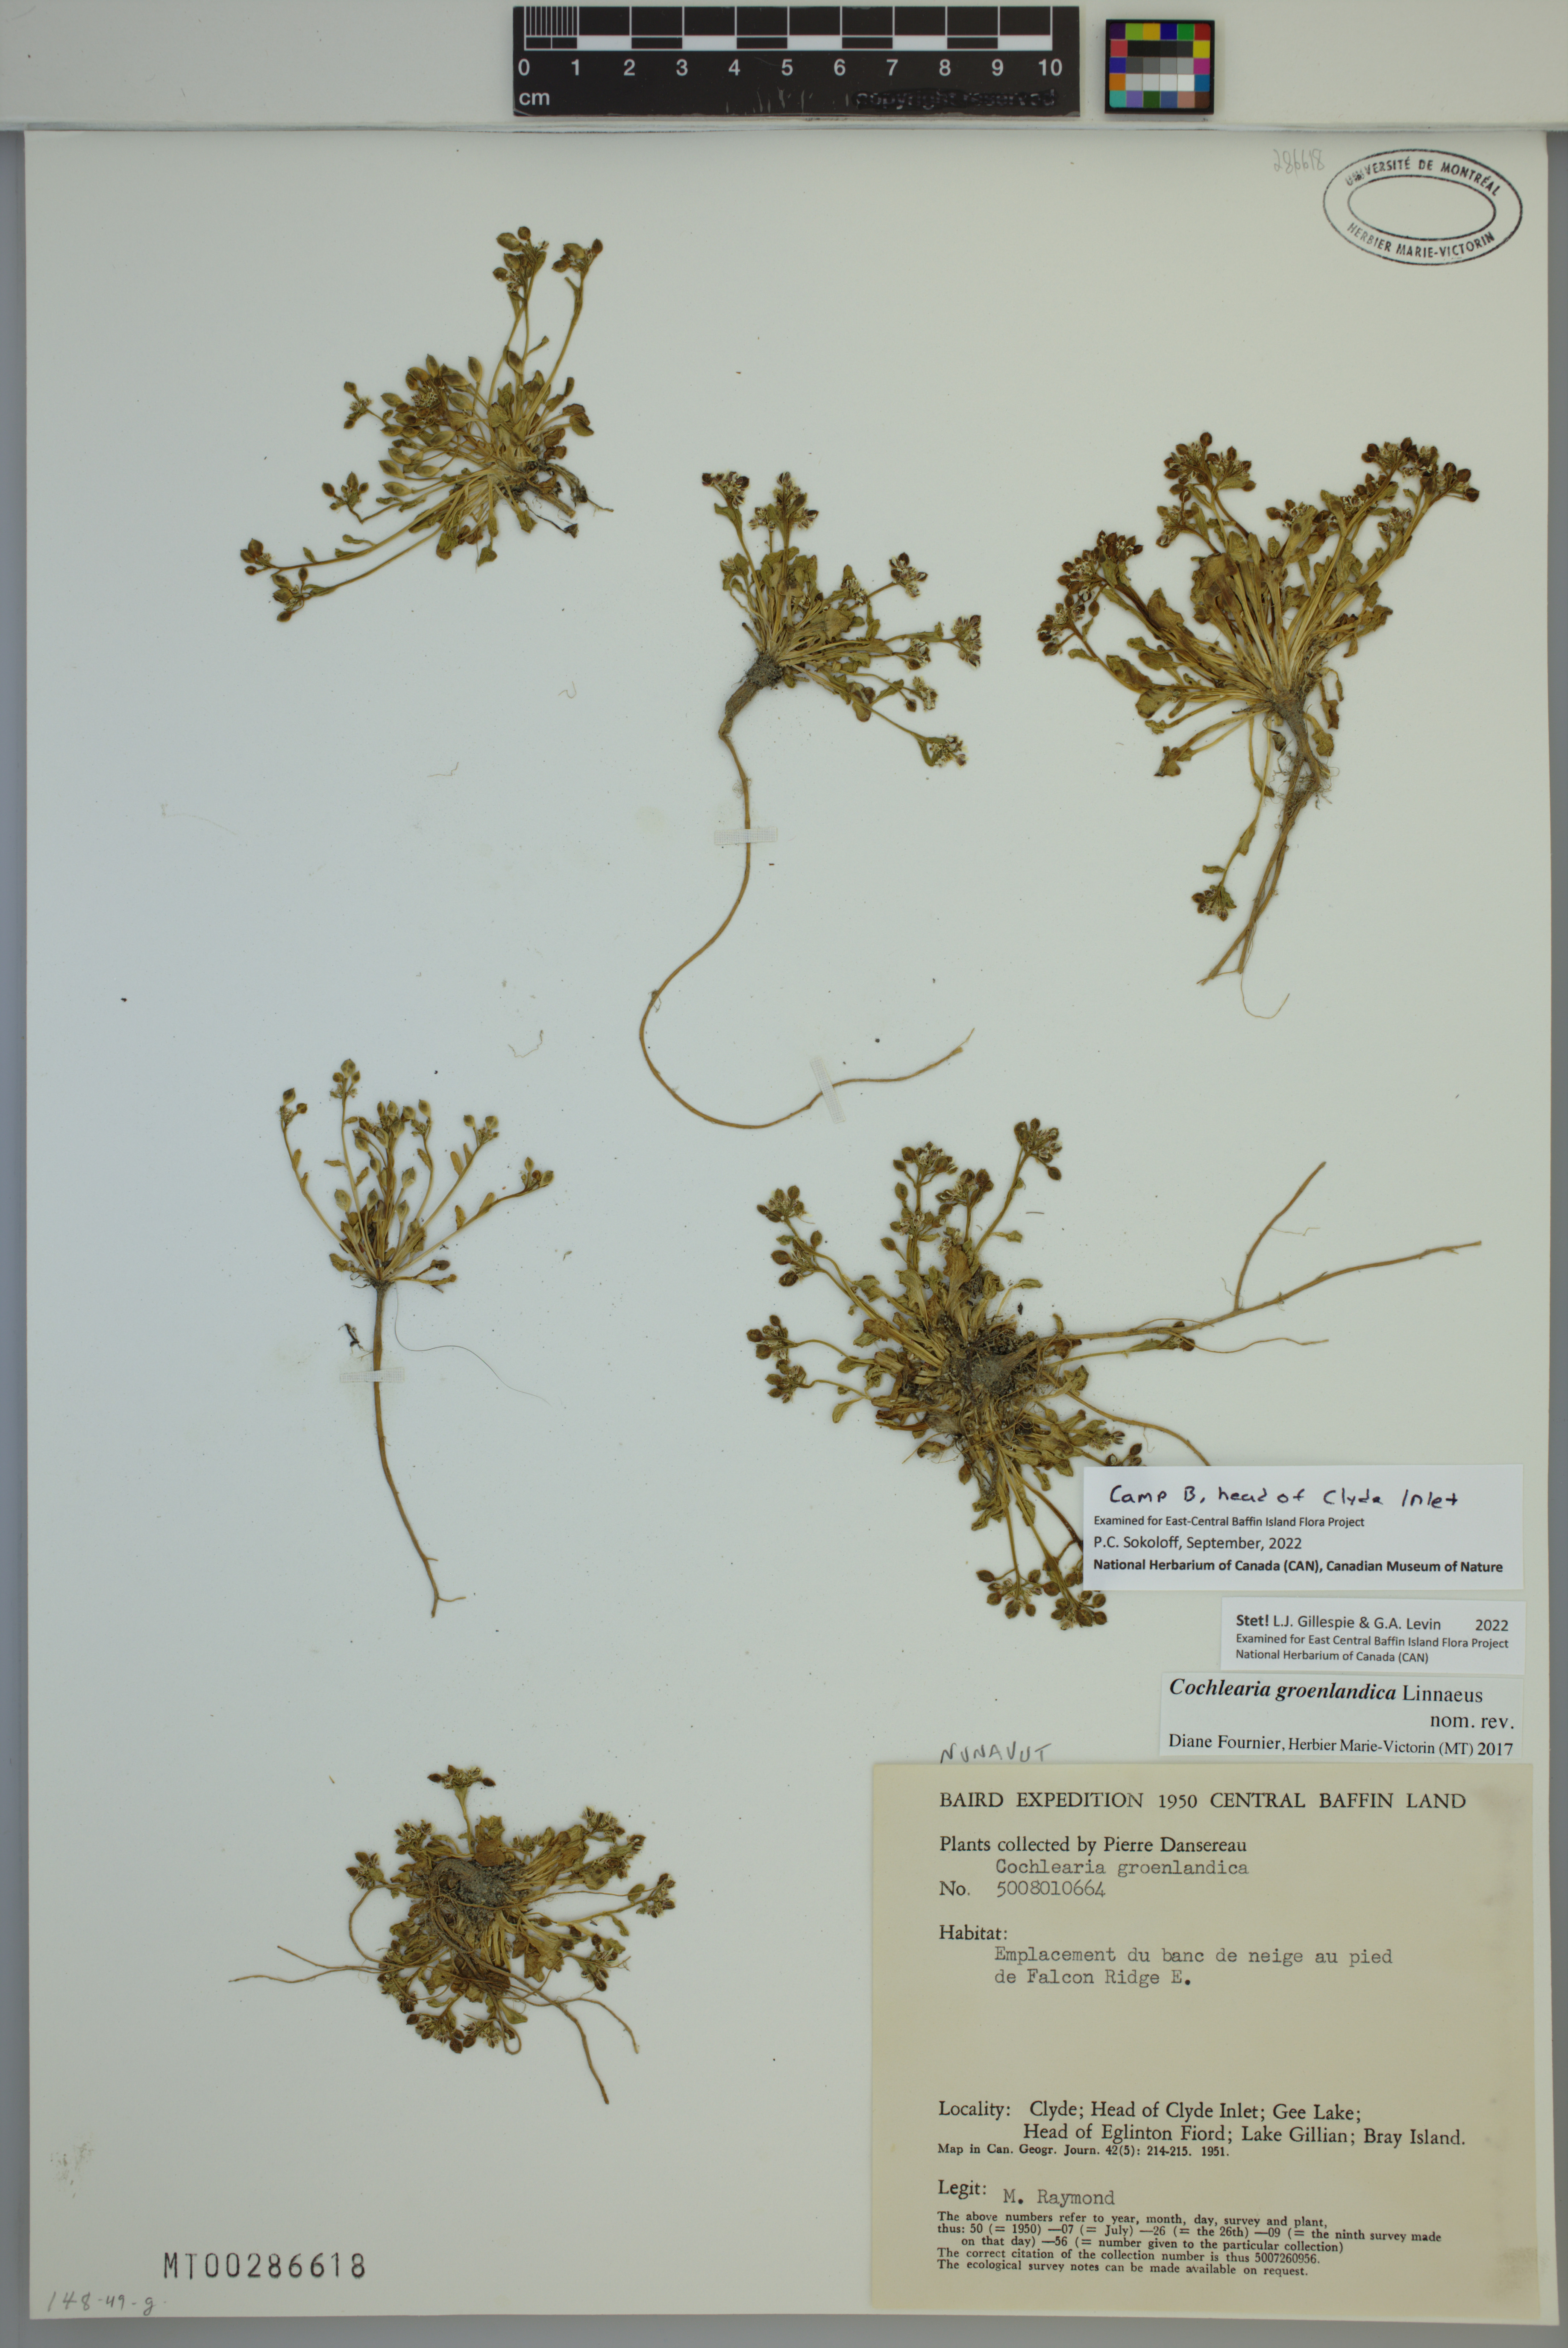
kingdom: Plantae
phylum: Tracheophyta
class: Magnoliopsida
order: Brassicales
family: Brassicaceae
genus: Cochlearia
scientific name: Cochlearia groenlandica
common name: Danish scurvygrass
